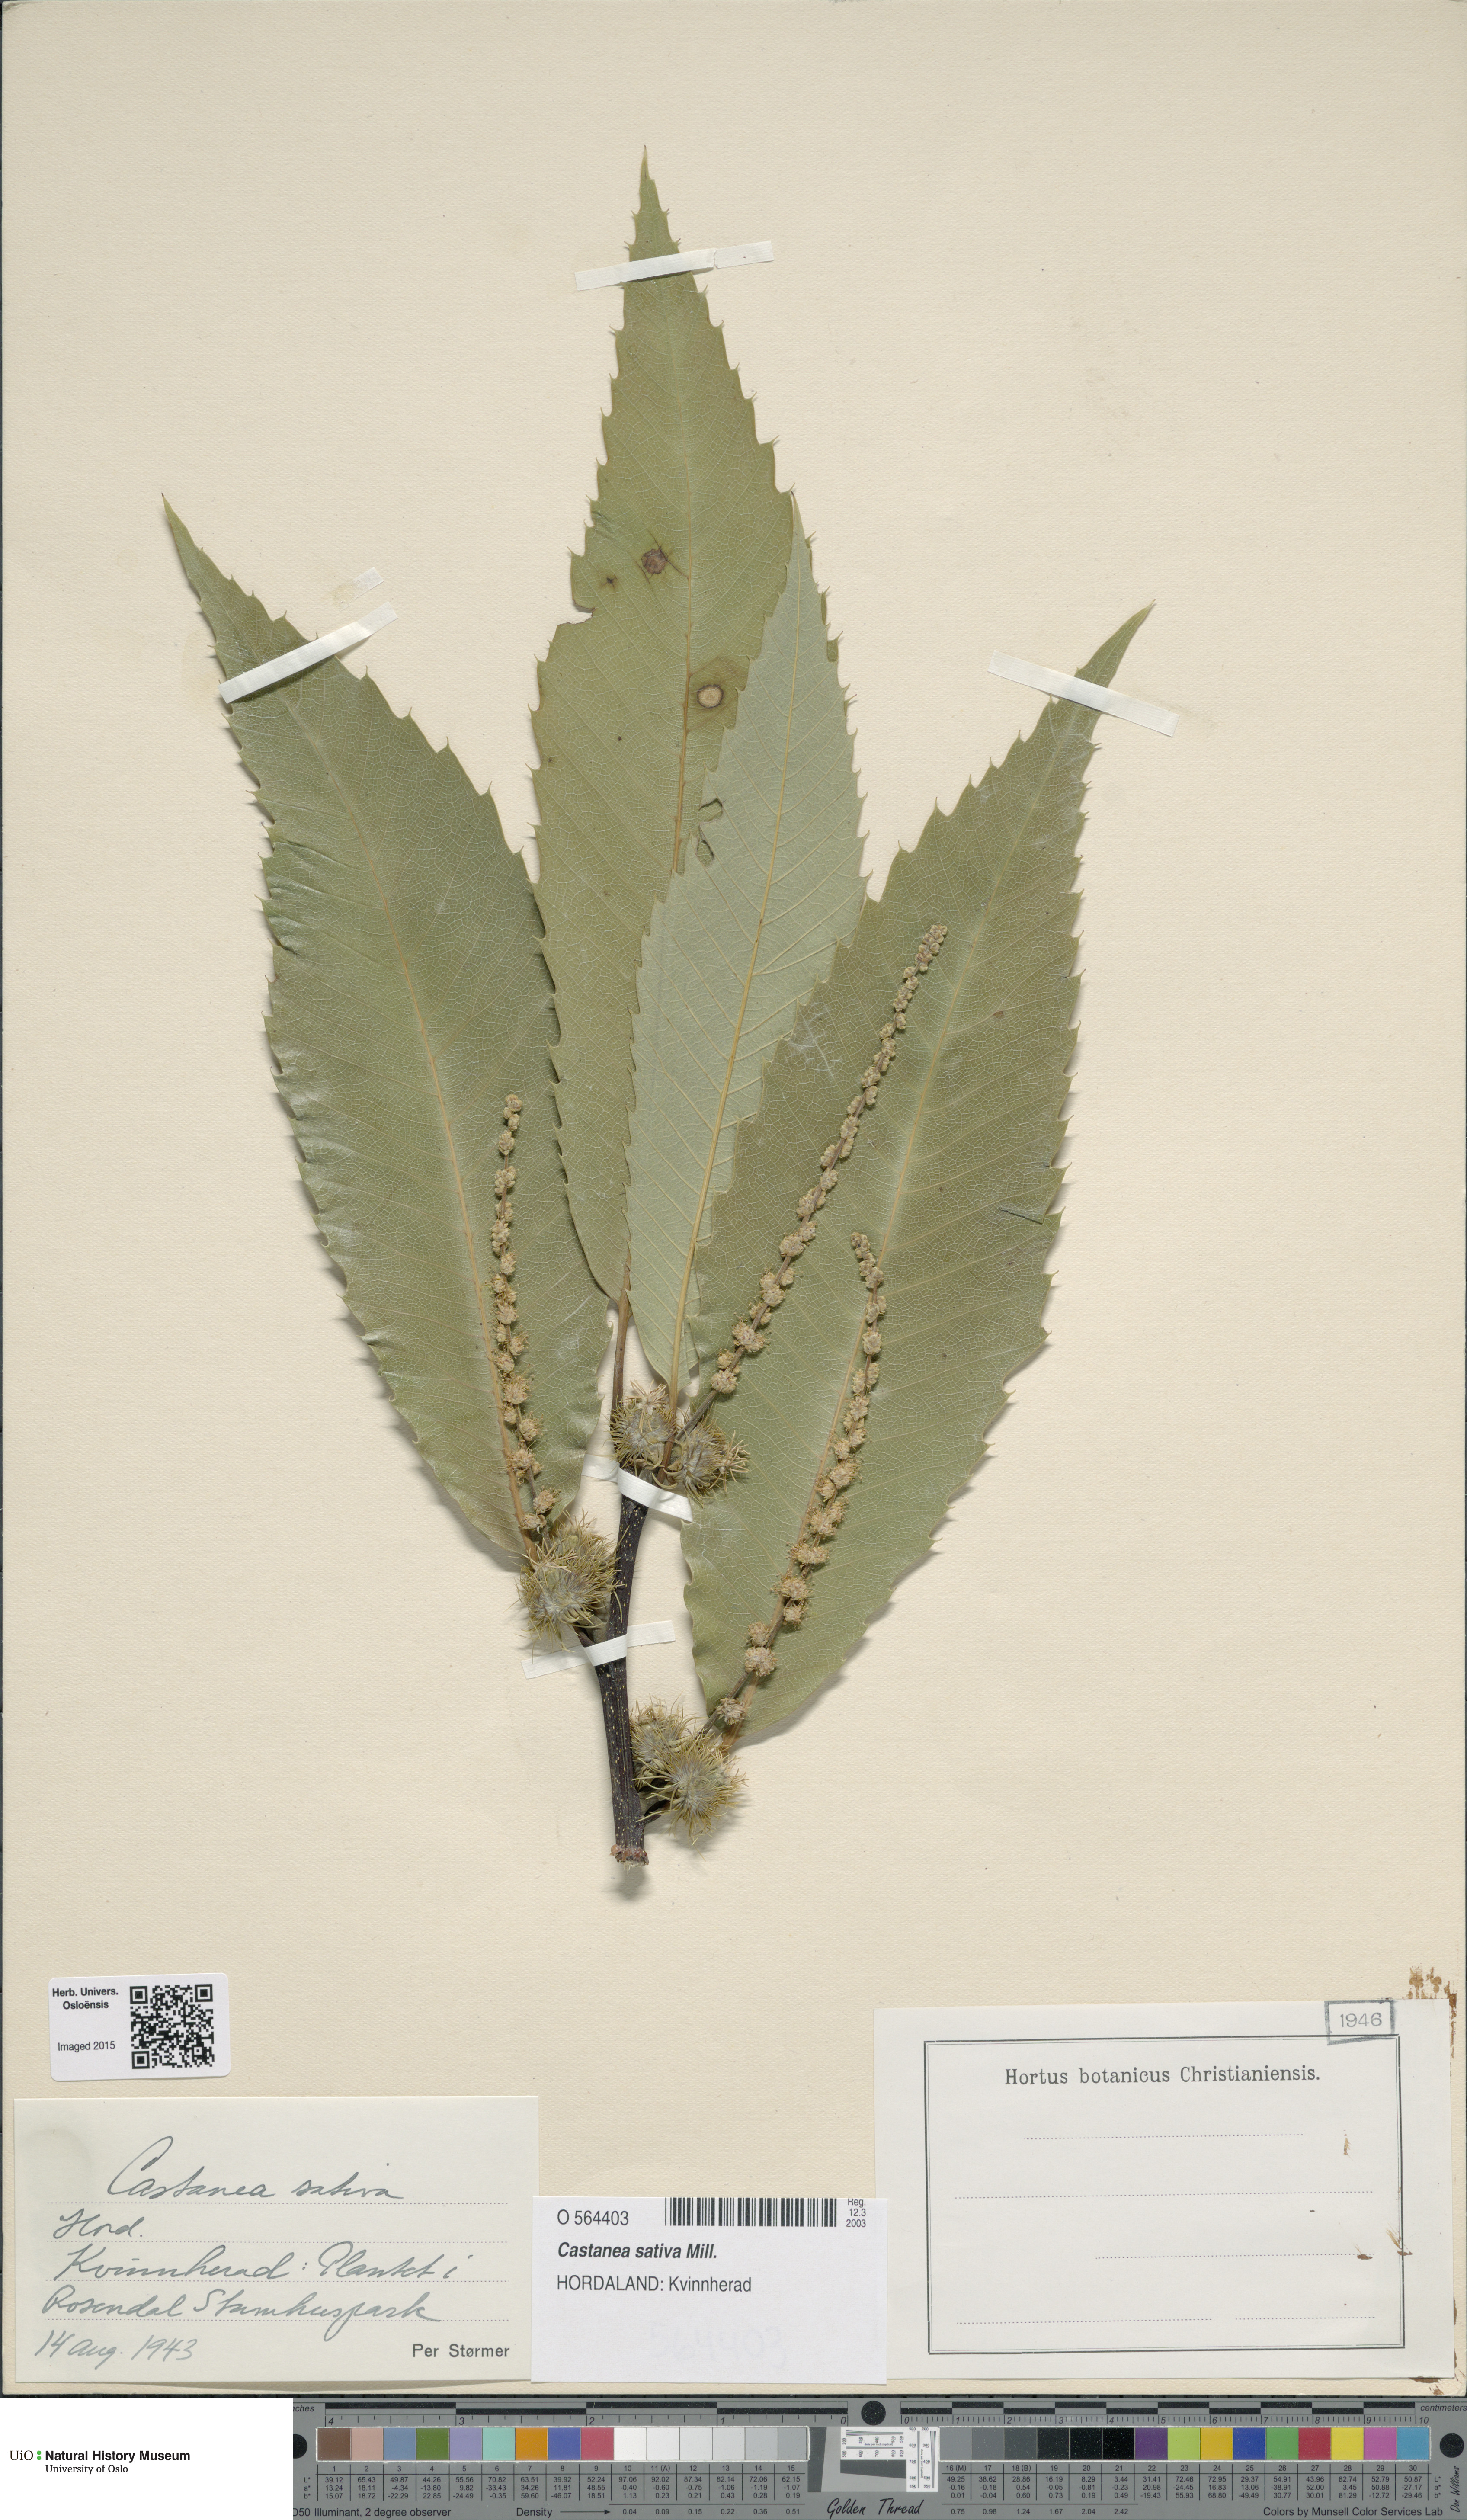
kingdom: Plantae
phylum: Tracheophyta
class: Magnoliopsida
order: Fagales
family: Fagaceae
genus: Castanea
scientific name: Castanea sativa
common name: Sweet chestnut
